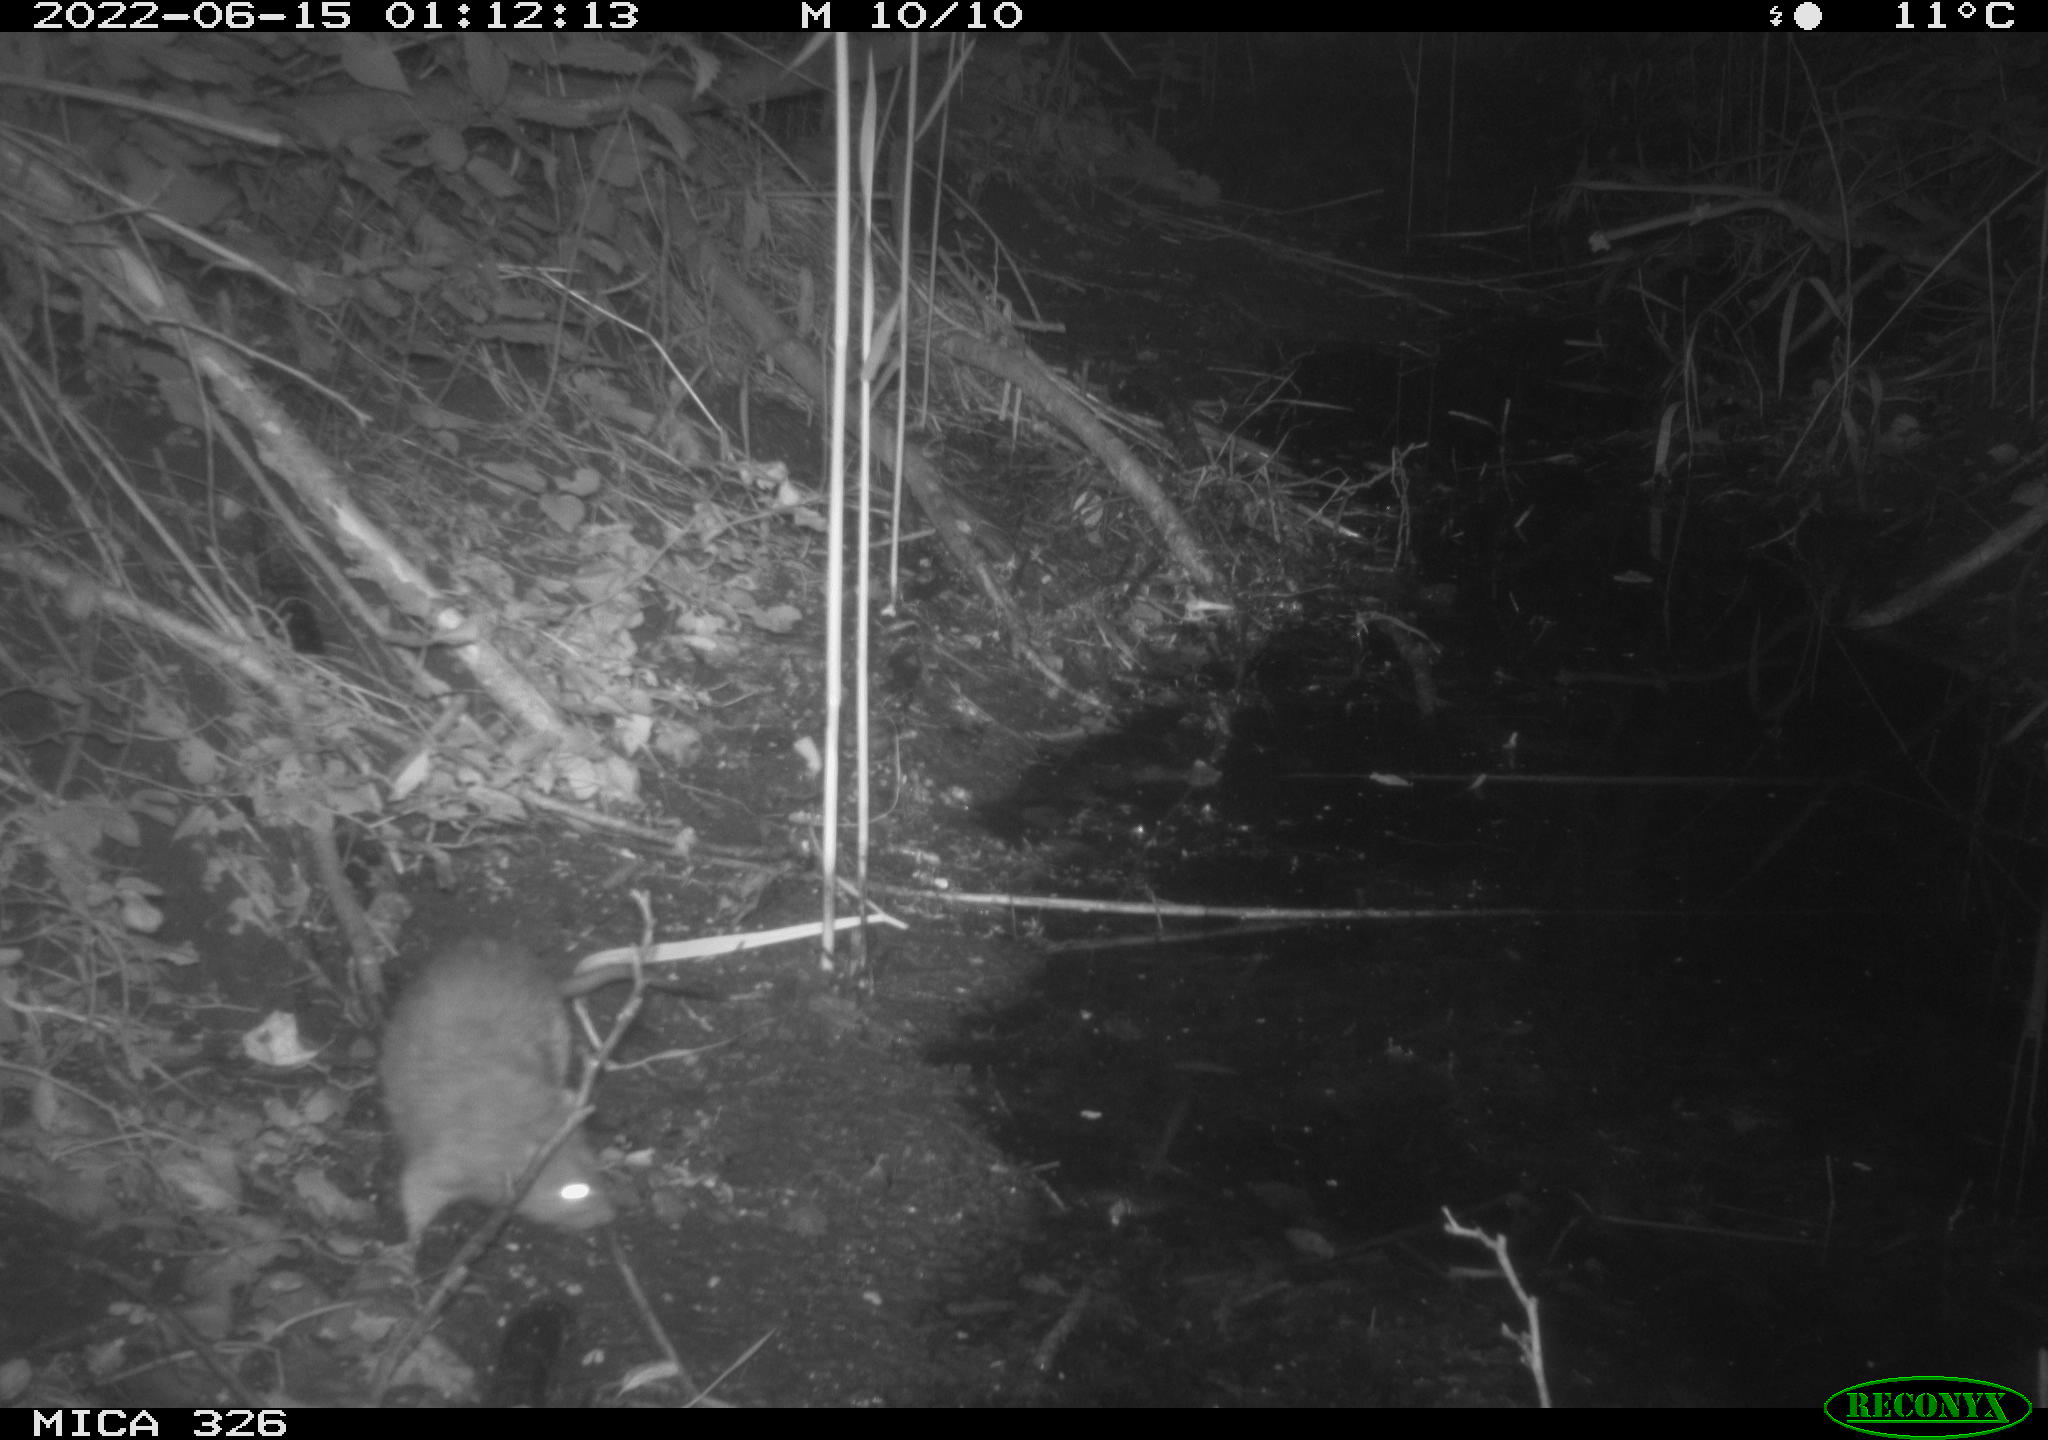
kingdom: Animalia
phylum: Chordata
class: Mammalia
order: Rodentia
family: Muridae
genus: Rattus
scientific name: Rattus norvegicus
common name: Brown rat
